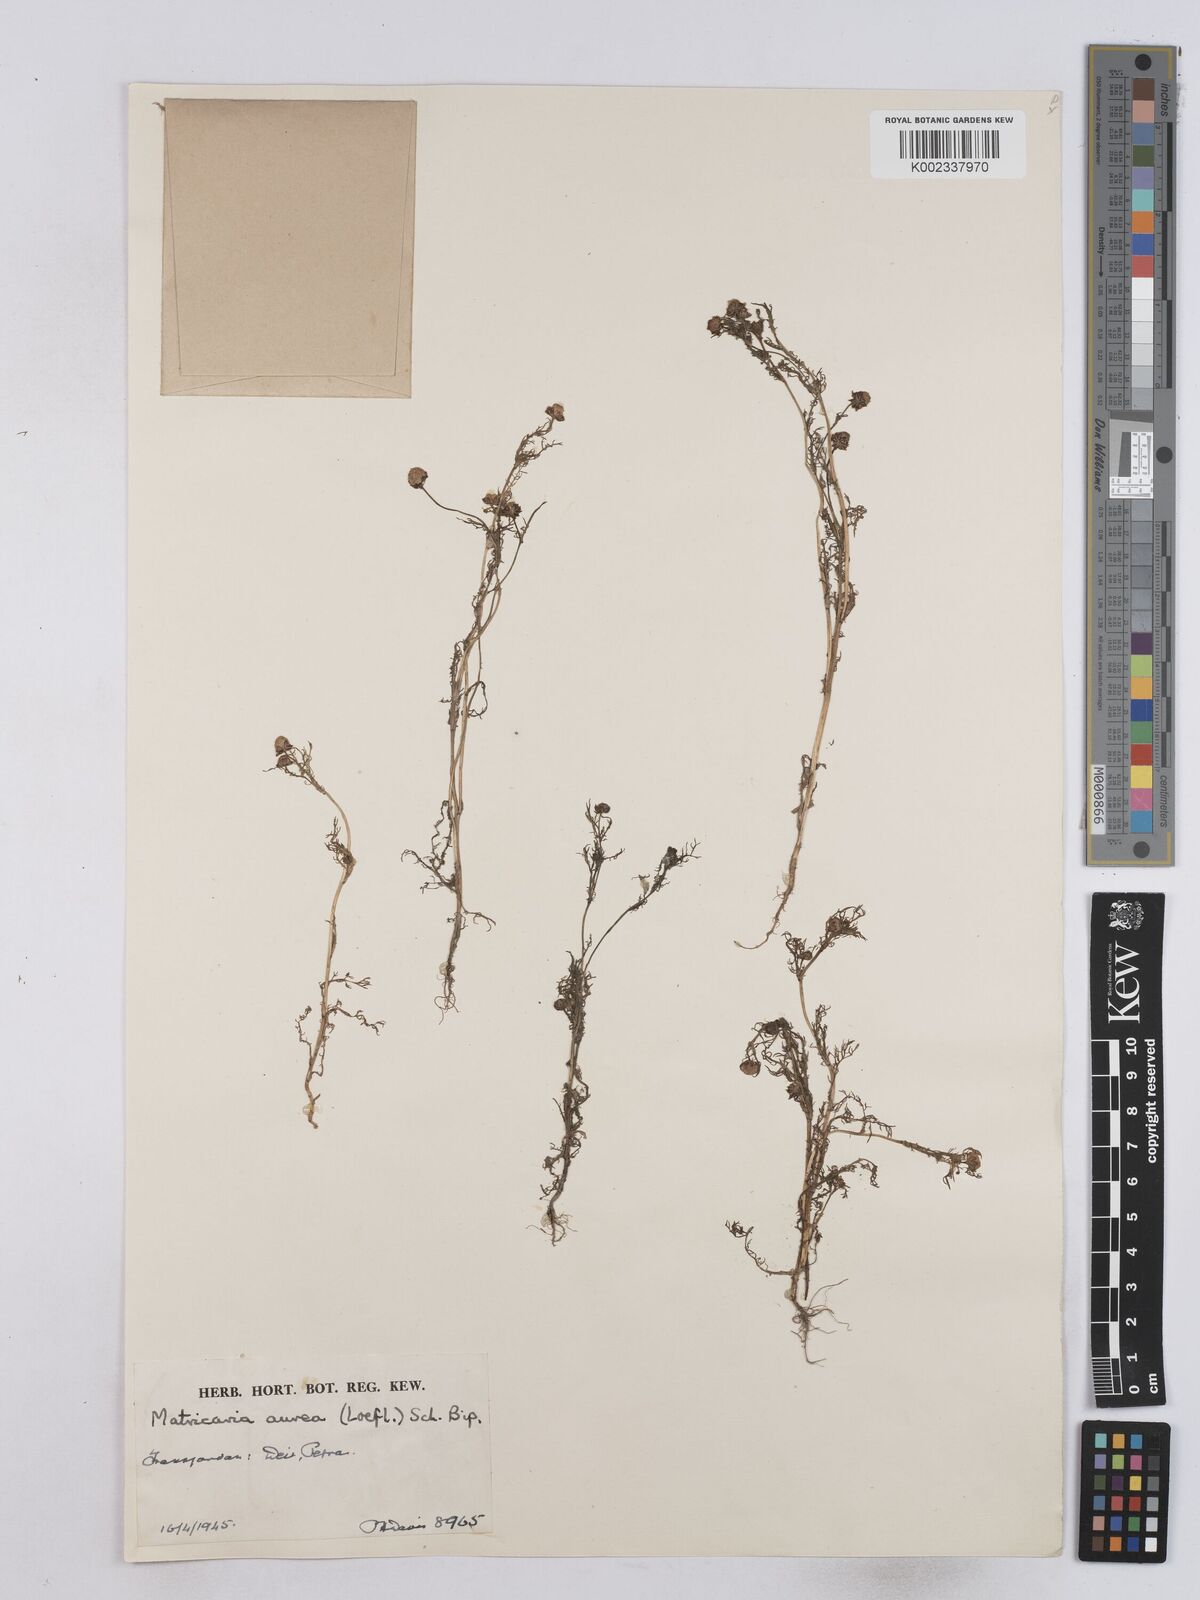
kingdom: Plantae
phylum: Tracheophyta
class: Magnoliopsida
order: Asterales
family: Asteraceae
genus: Matricaria
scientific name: Matricaria aurea
